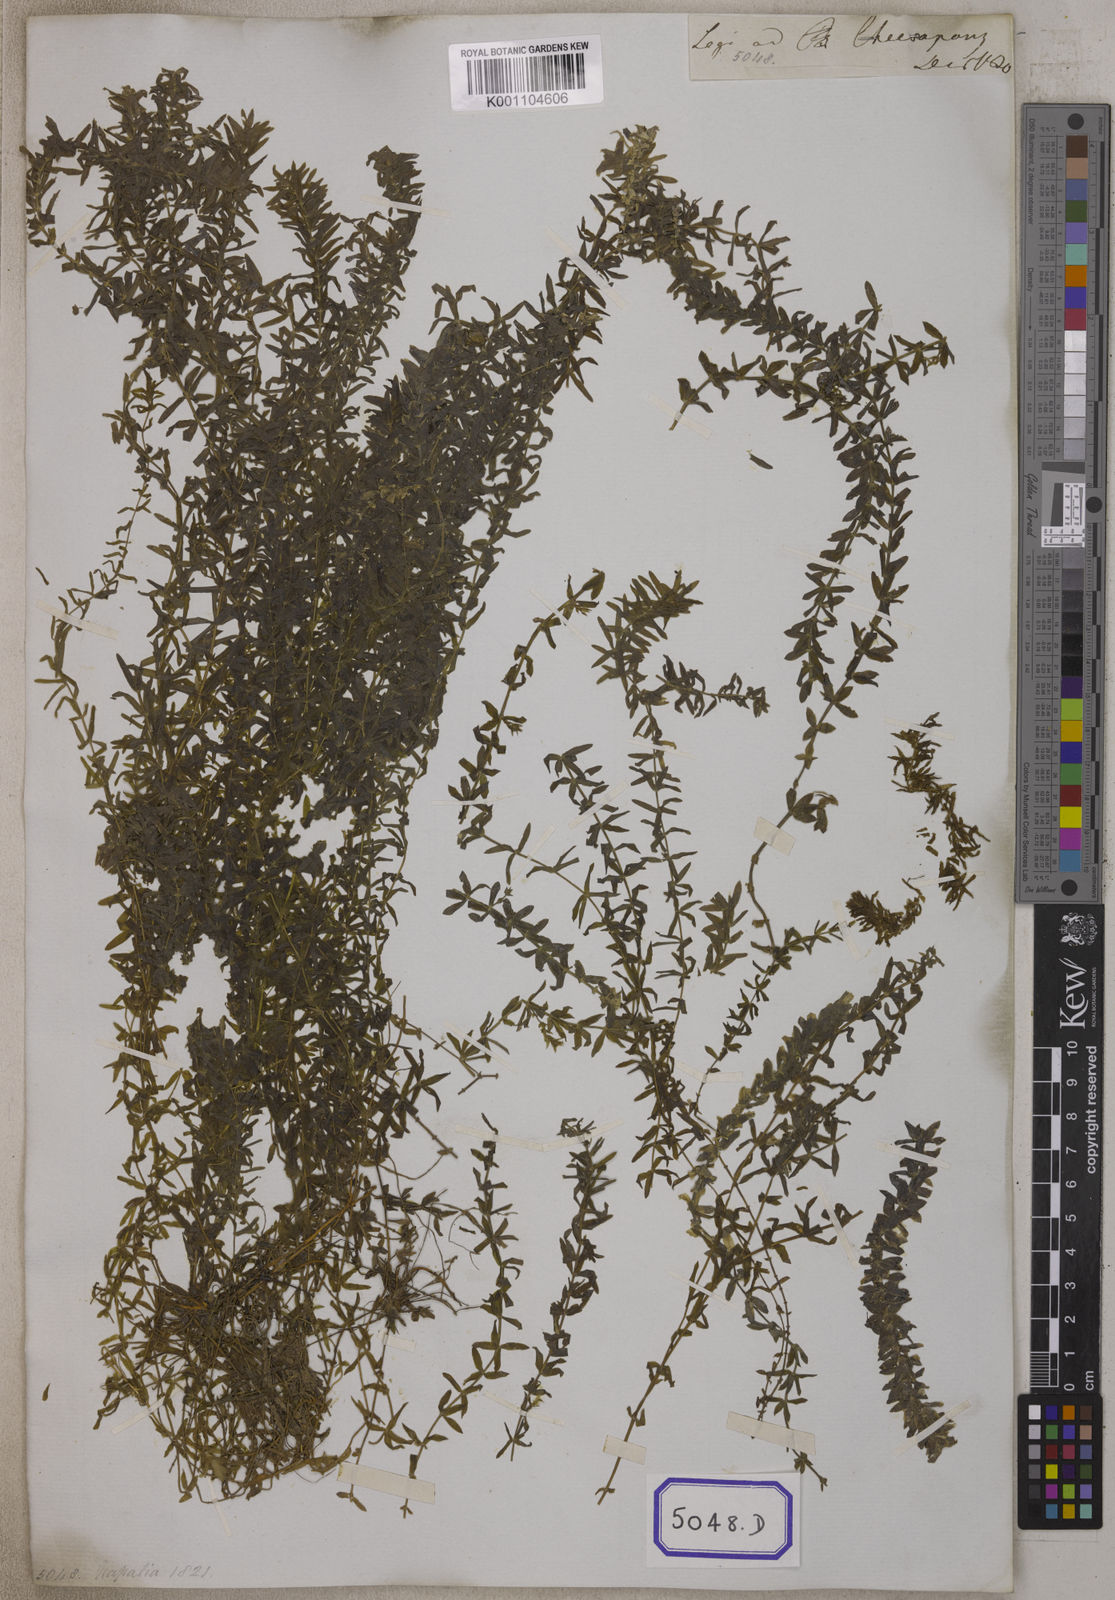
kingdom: Plantae
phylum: Tracheophyta
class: Magnoliopsida
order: Saxifragales
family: Haloragaceae
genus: Serpicula
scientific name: Serpicula
